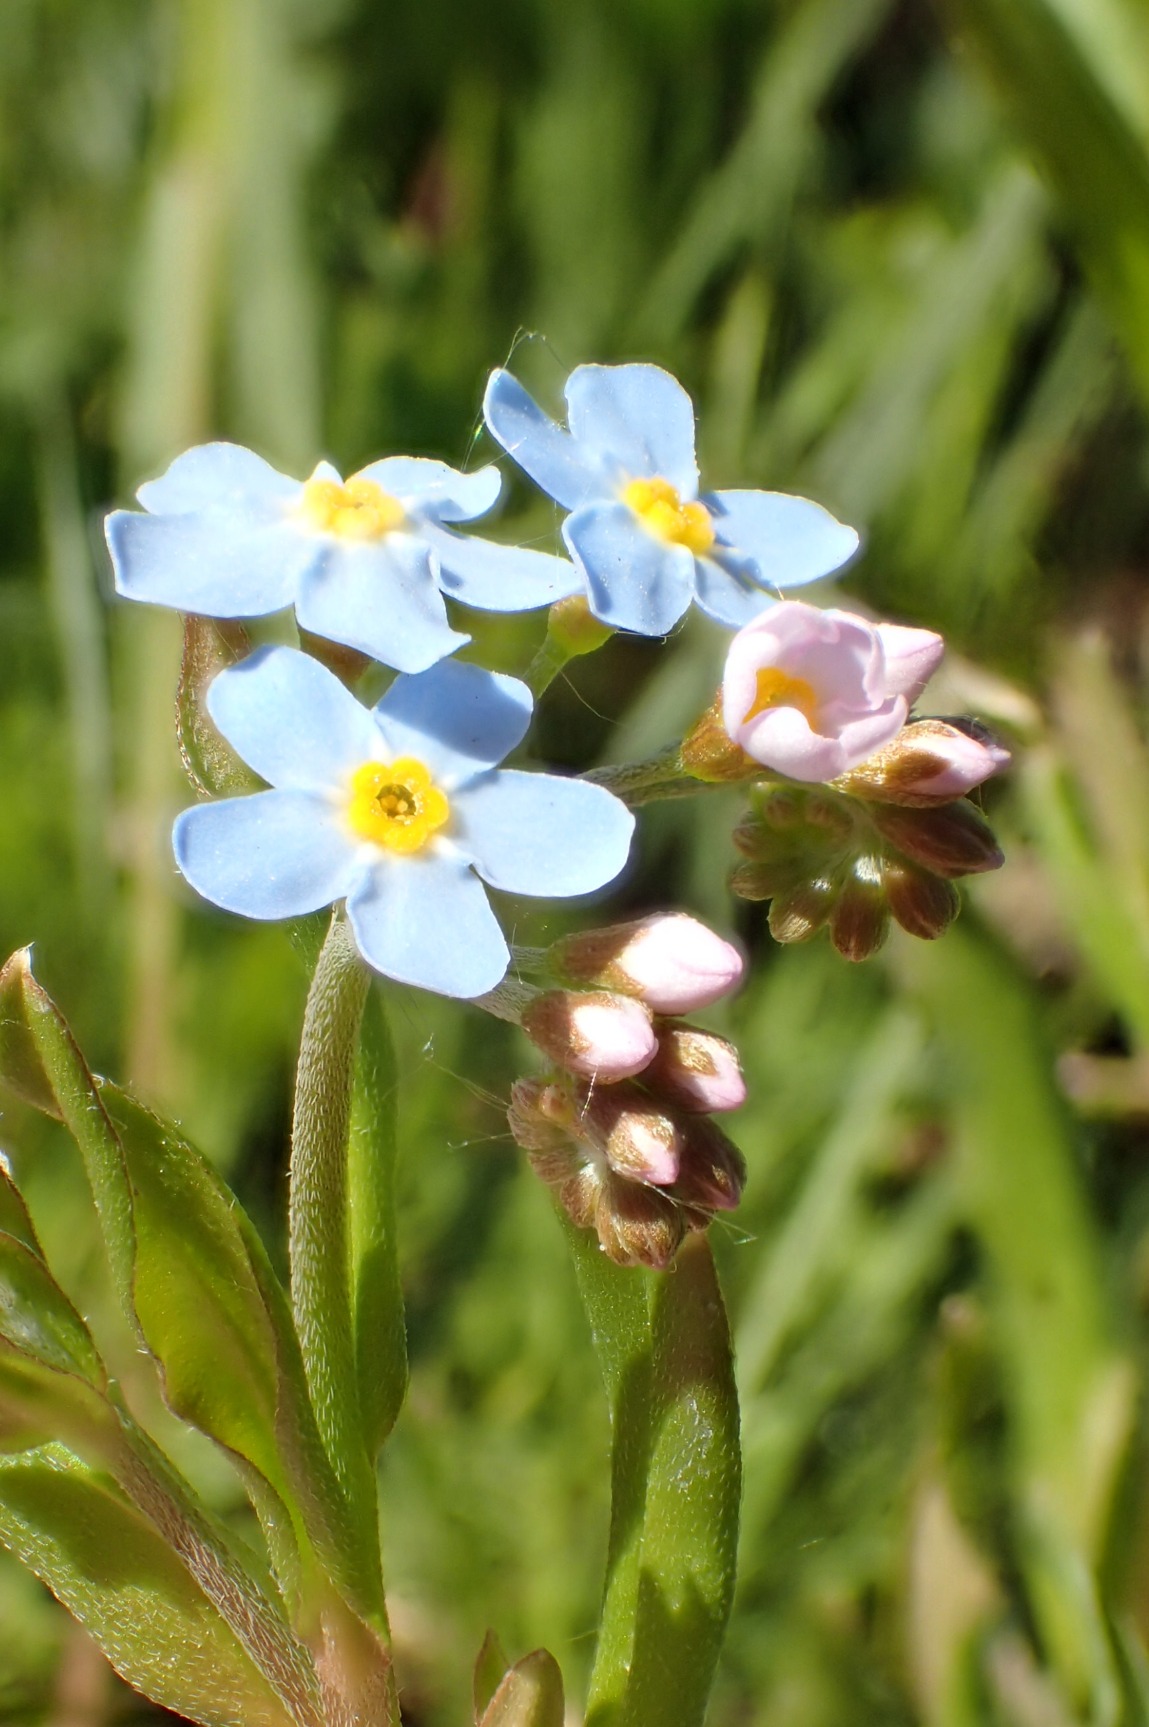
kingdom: Plantae
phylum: Tracheophyta
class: Magnoliopsida
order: Boraginales
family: Boraginaceae
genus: Myosotis
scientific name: Myosotis scorpioides
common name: Eng-forglemmigej
